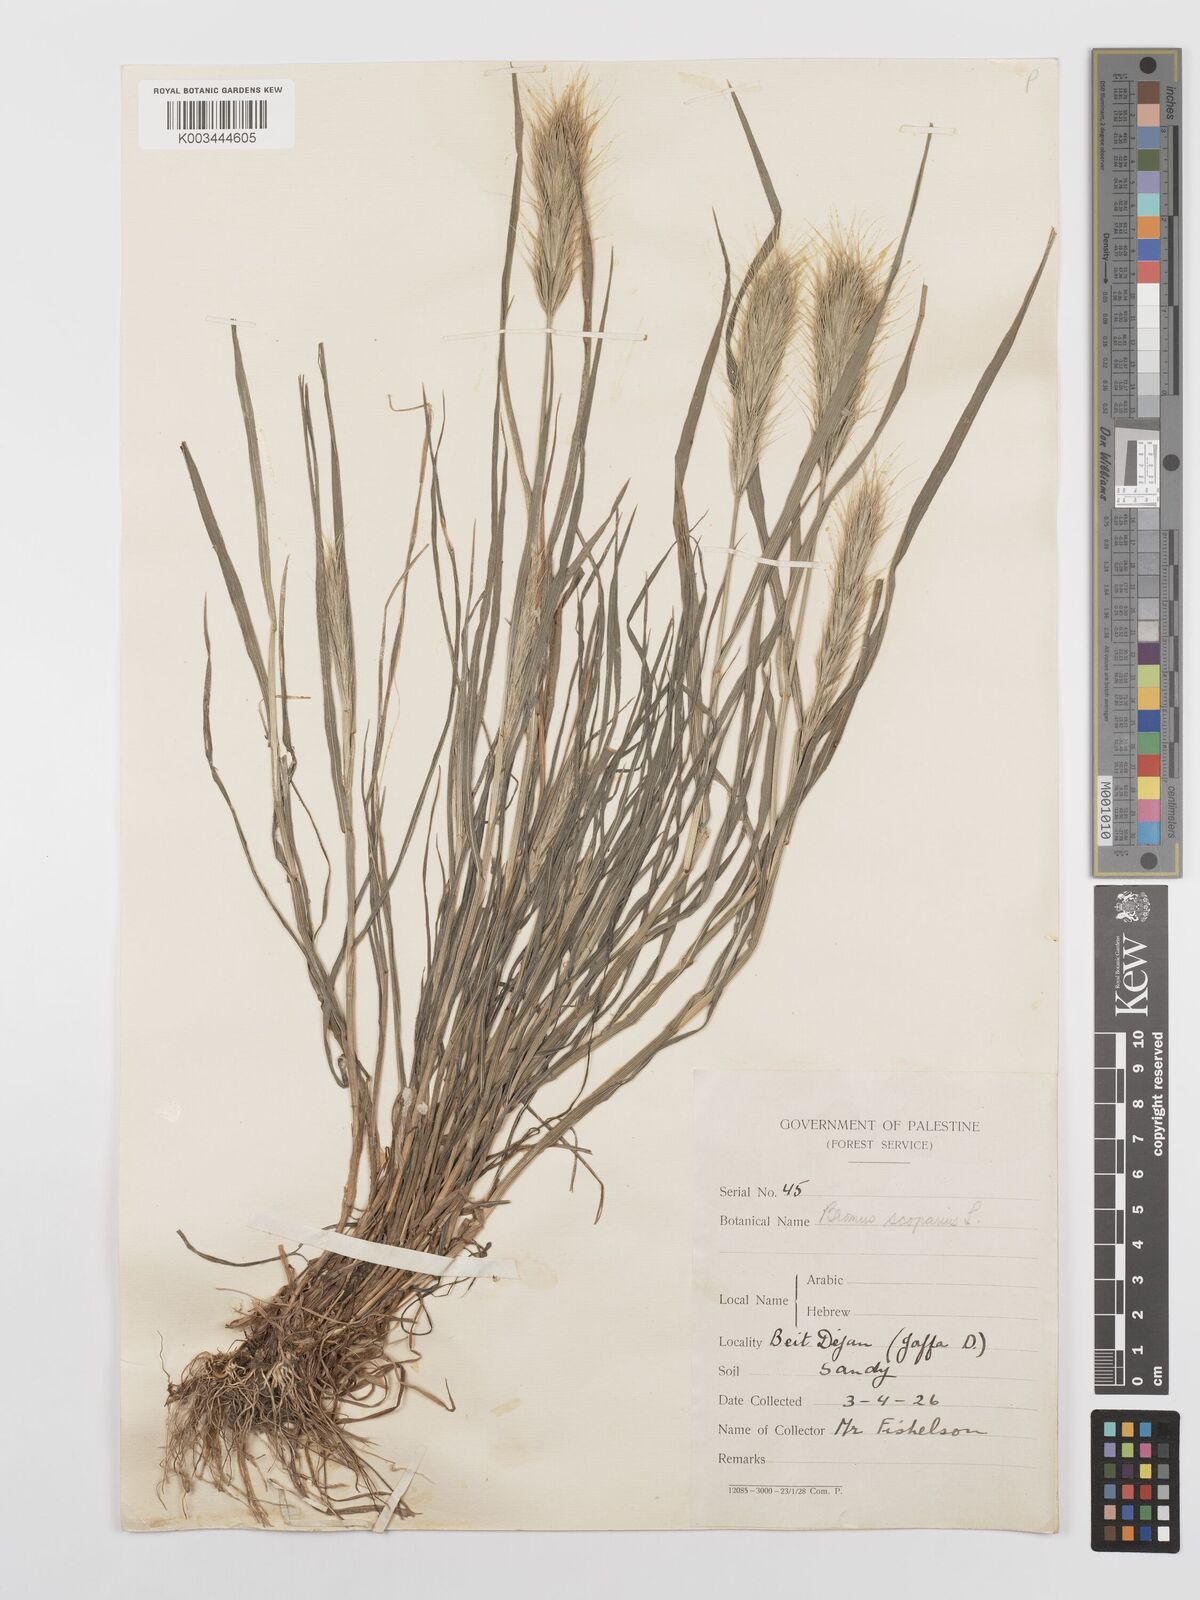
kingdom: Plantae
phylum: Tracheophyta
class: Liliopsida
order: Poales
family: Poaceae
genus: Bromus
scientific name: Bromus scoparius
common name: Broom brome
